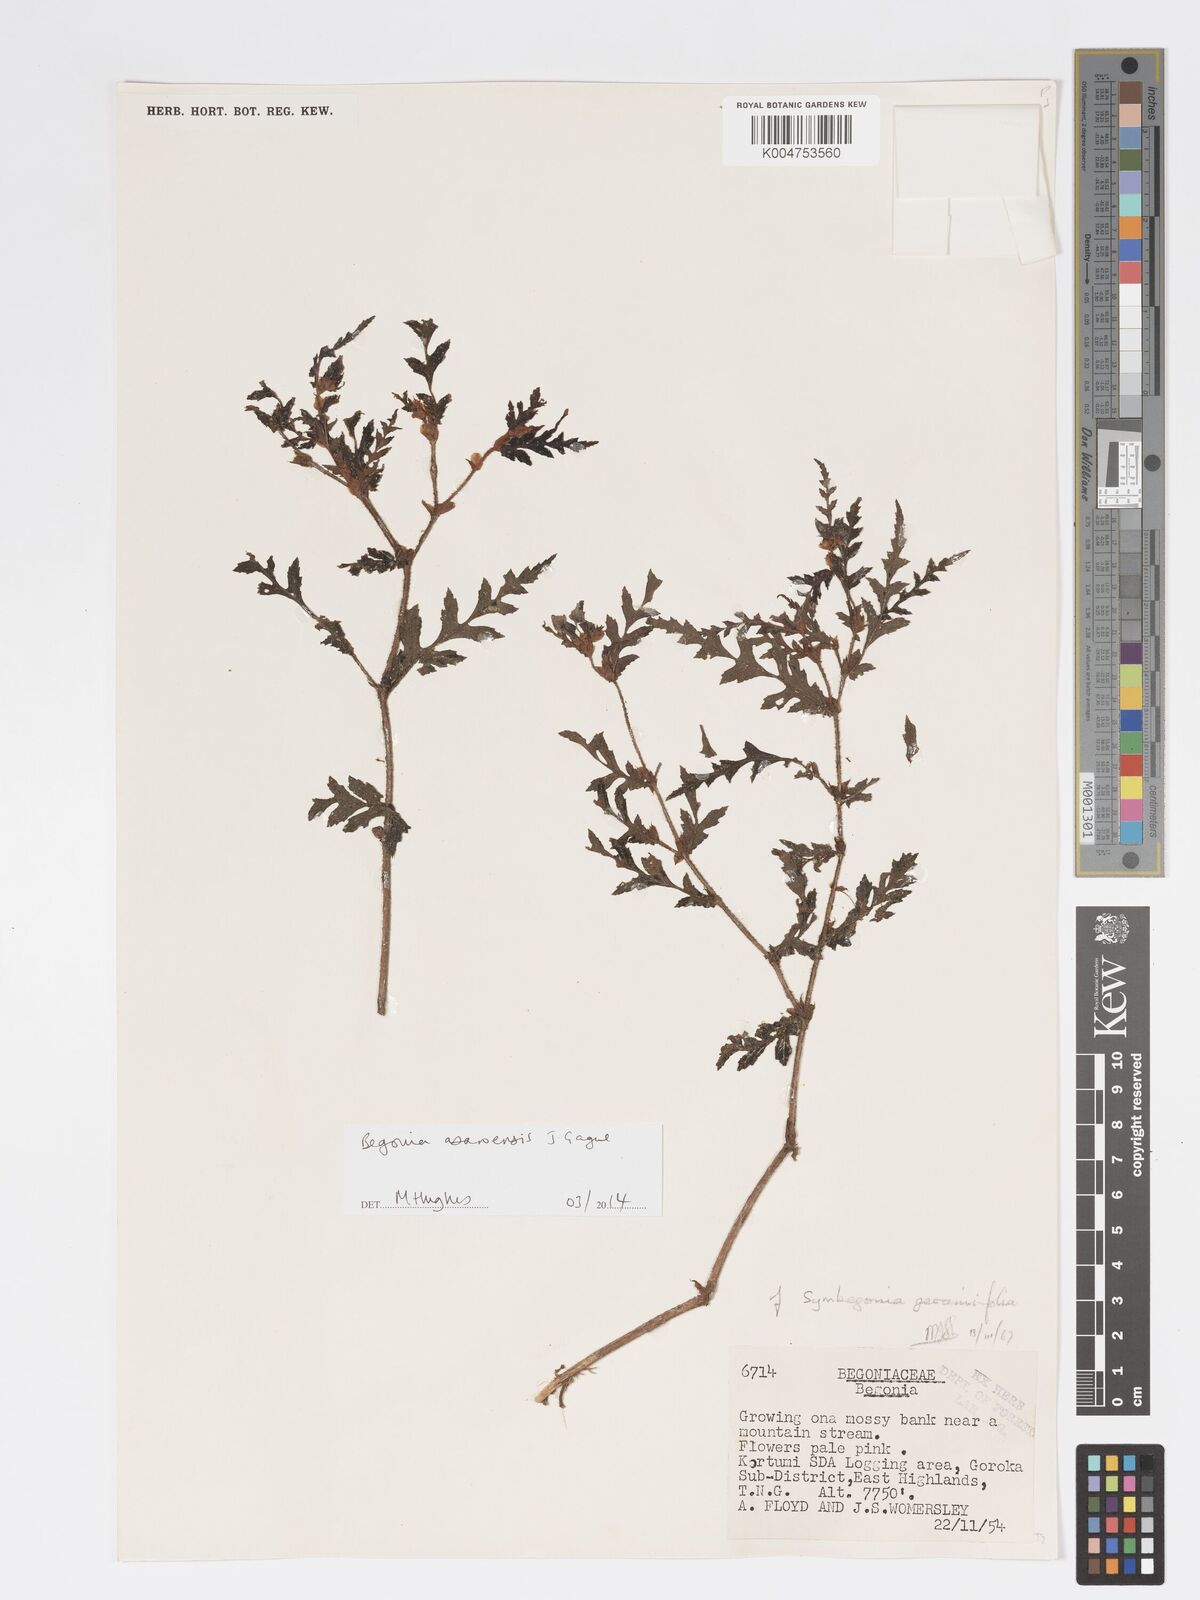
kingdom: Plantae
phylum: Tracheophyta
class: Magnoliopsida
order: Cucurbitales
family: Begoniaceae
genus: Begonia
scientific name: Begonia asaroensis
